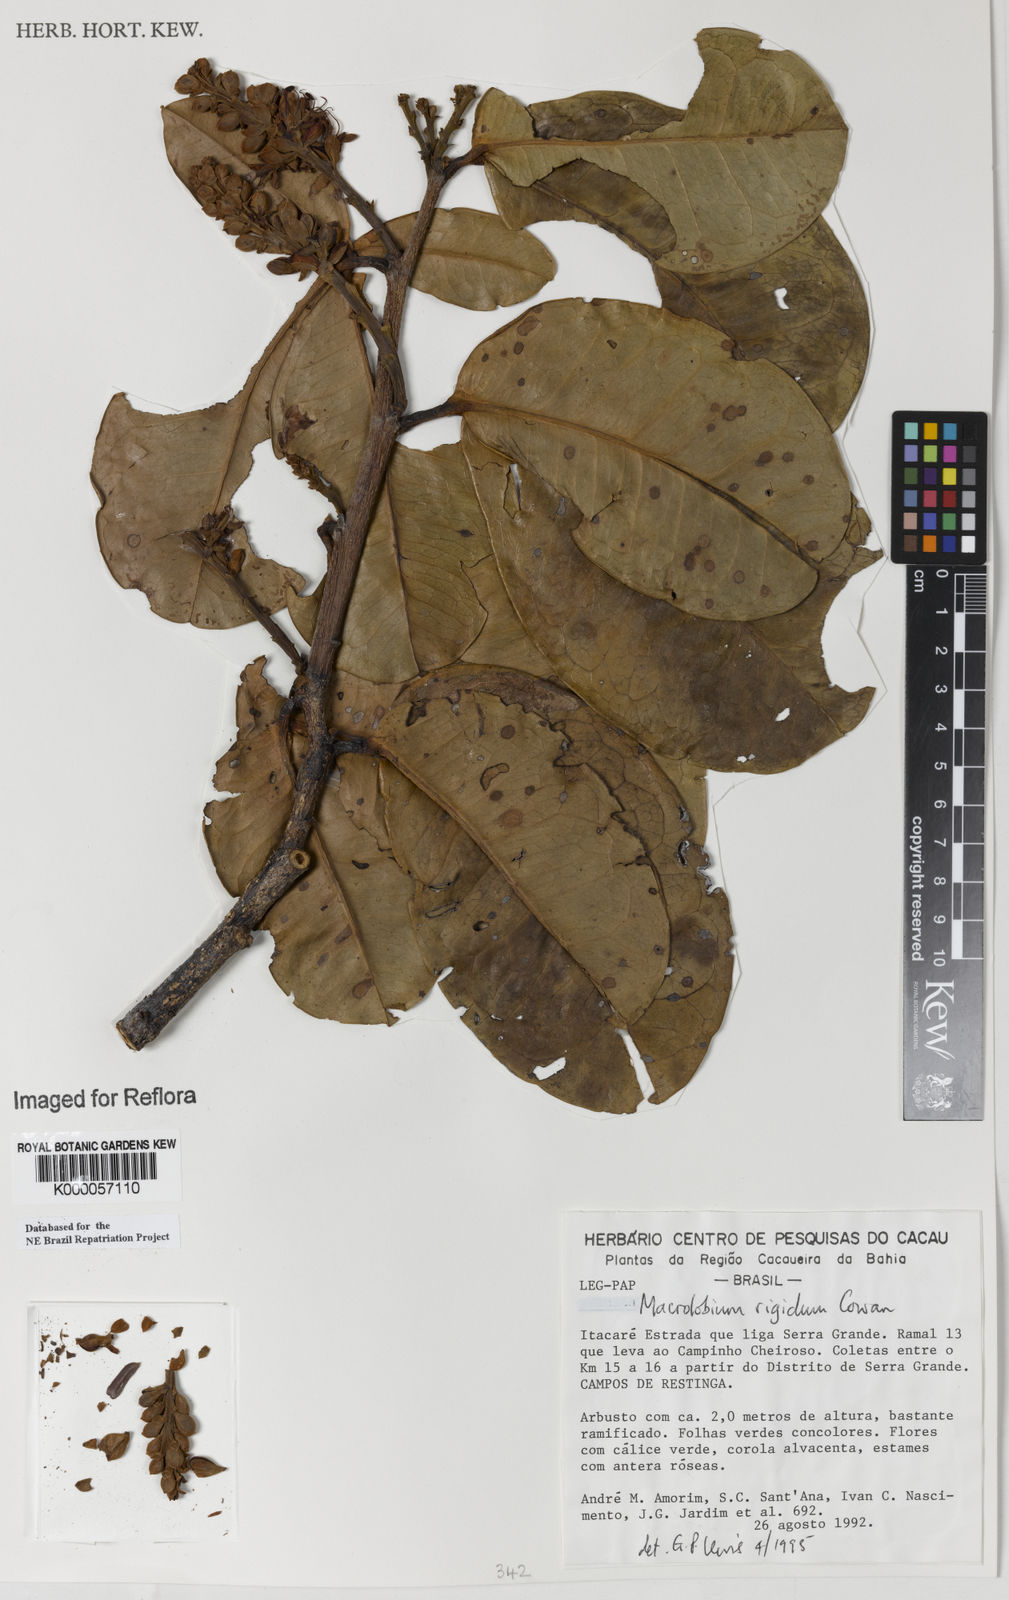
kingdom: Plantae
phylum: Tracheophyta
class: Magnoliopsida
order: Fabales
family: Fabaceae
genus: Macrolobium
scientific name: Macrolobium rigidum
